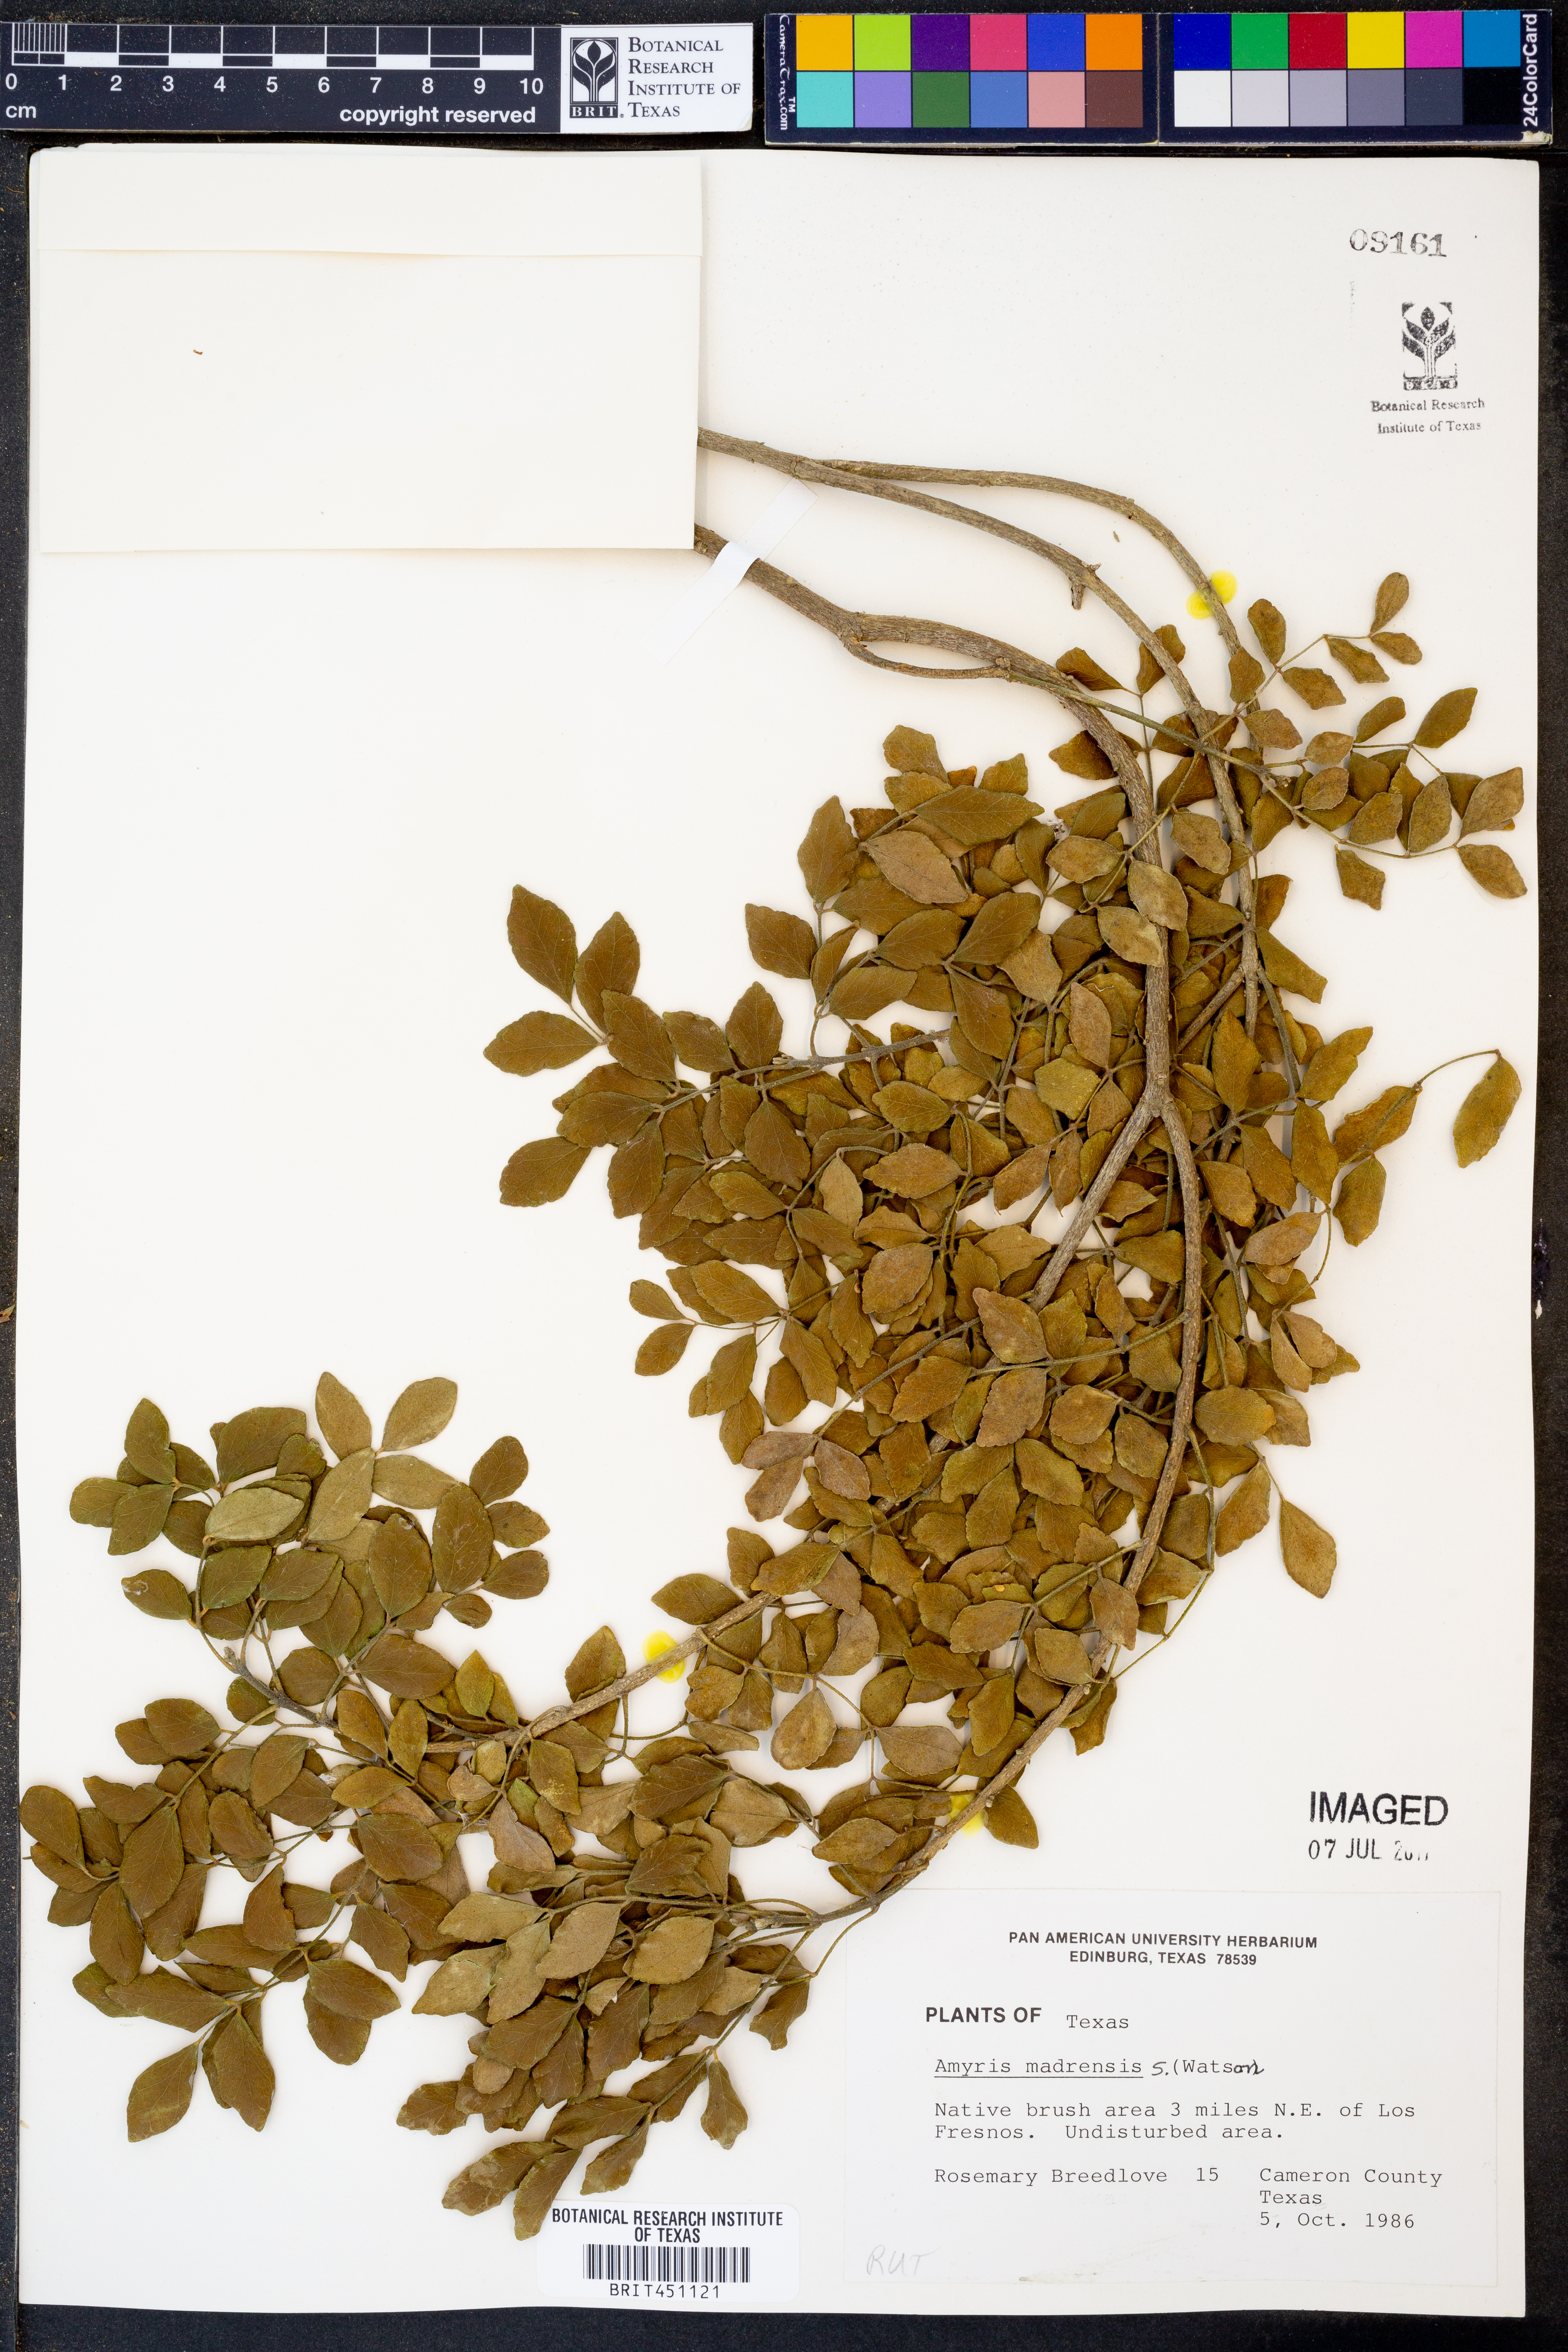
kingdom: Plantae
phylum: Tracheophyta
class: Magnoliopsida
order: Sapindales
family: Rutaceae
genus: Amyris
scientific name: Amyris madrensis
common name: Mountain torchwood
